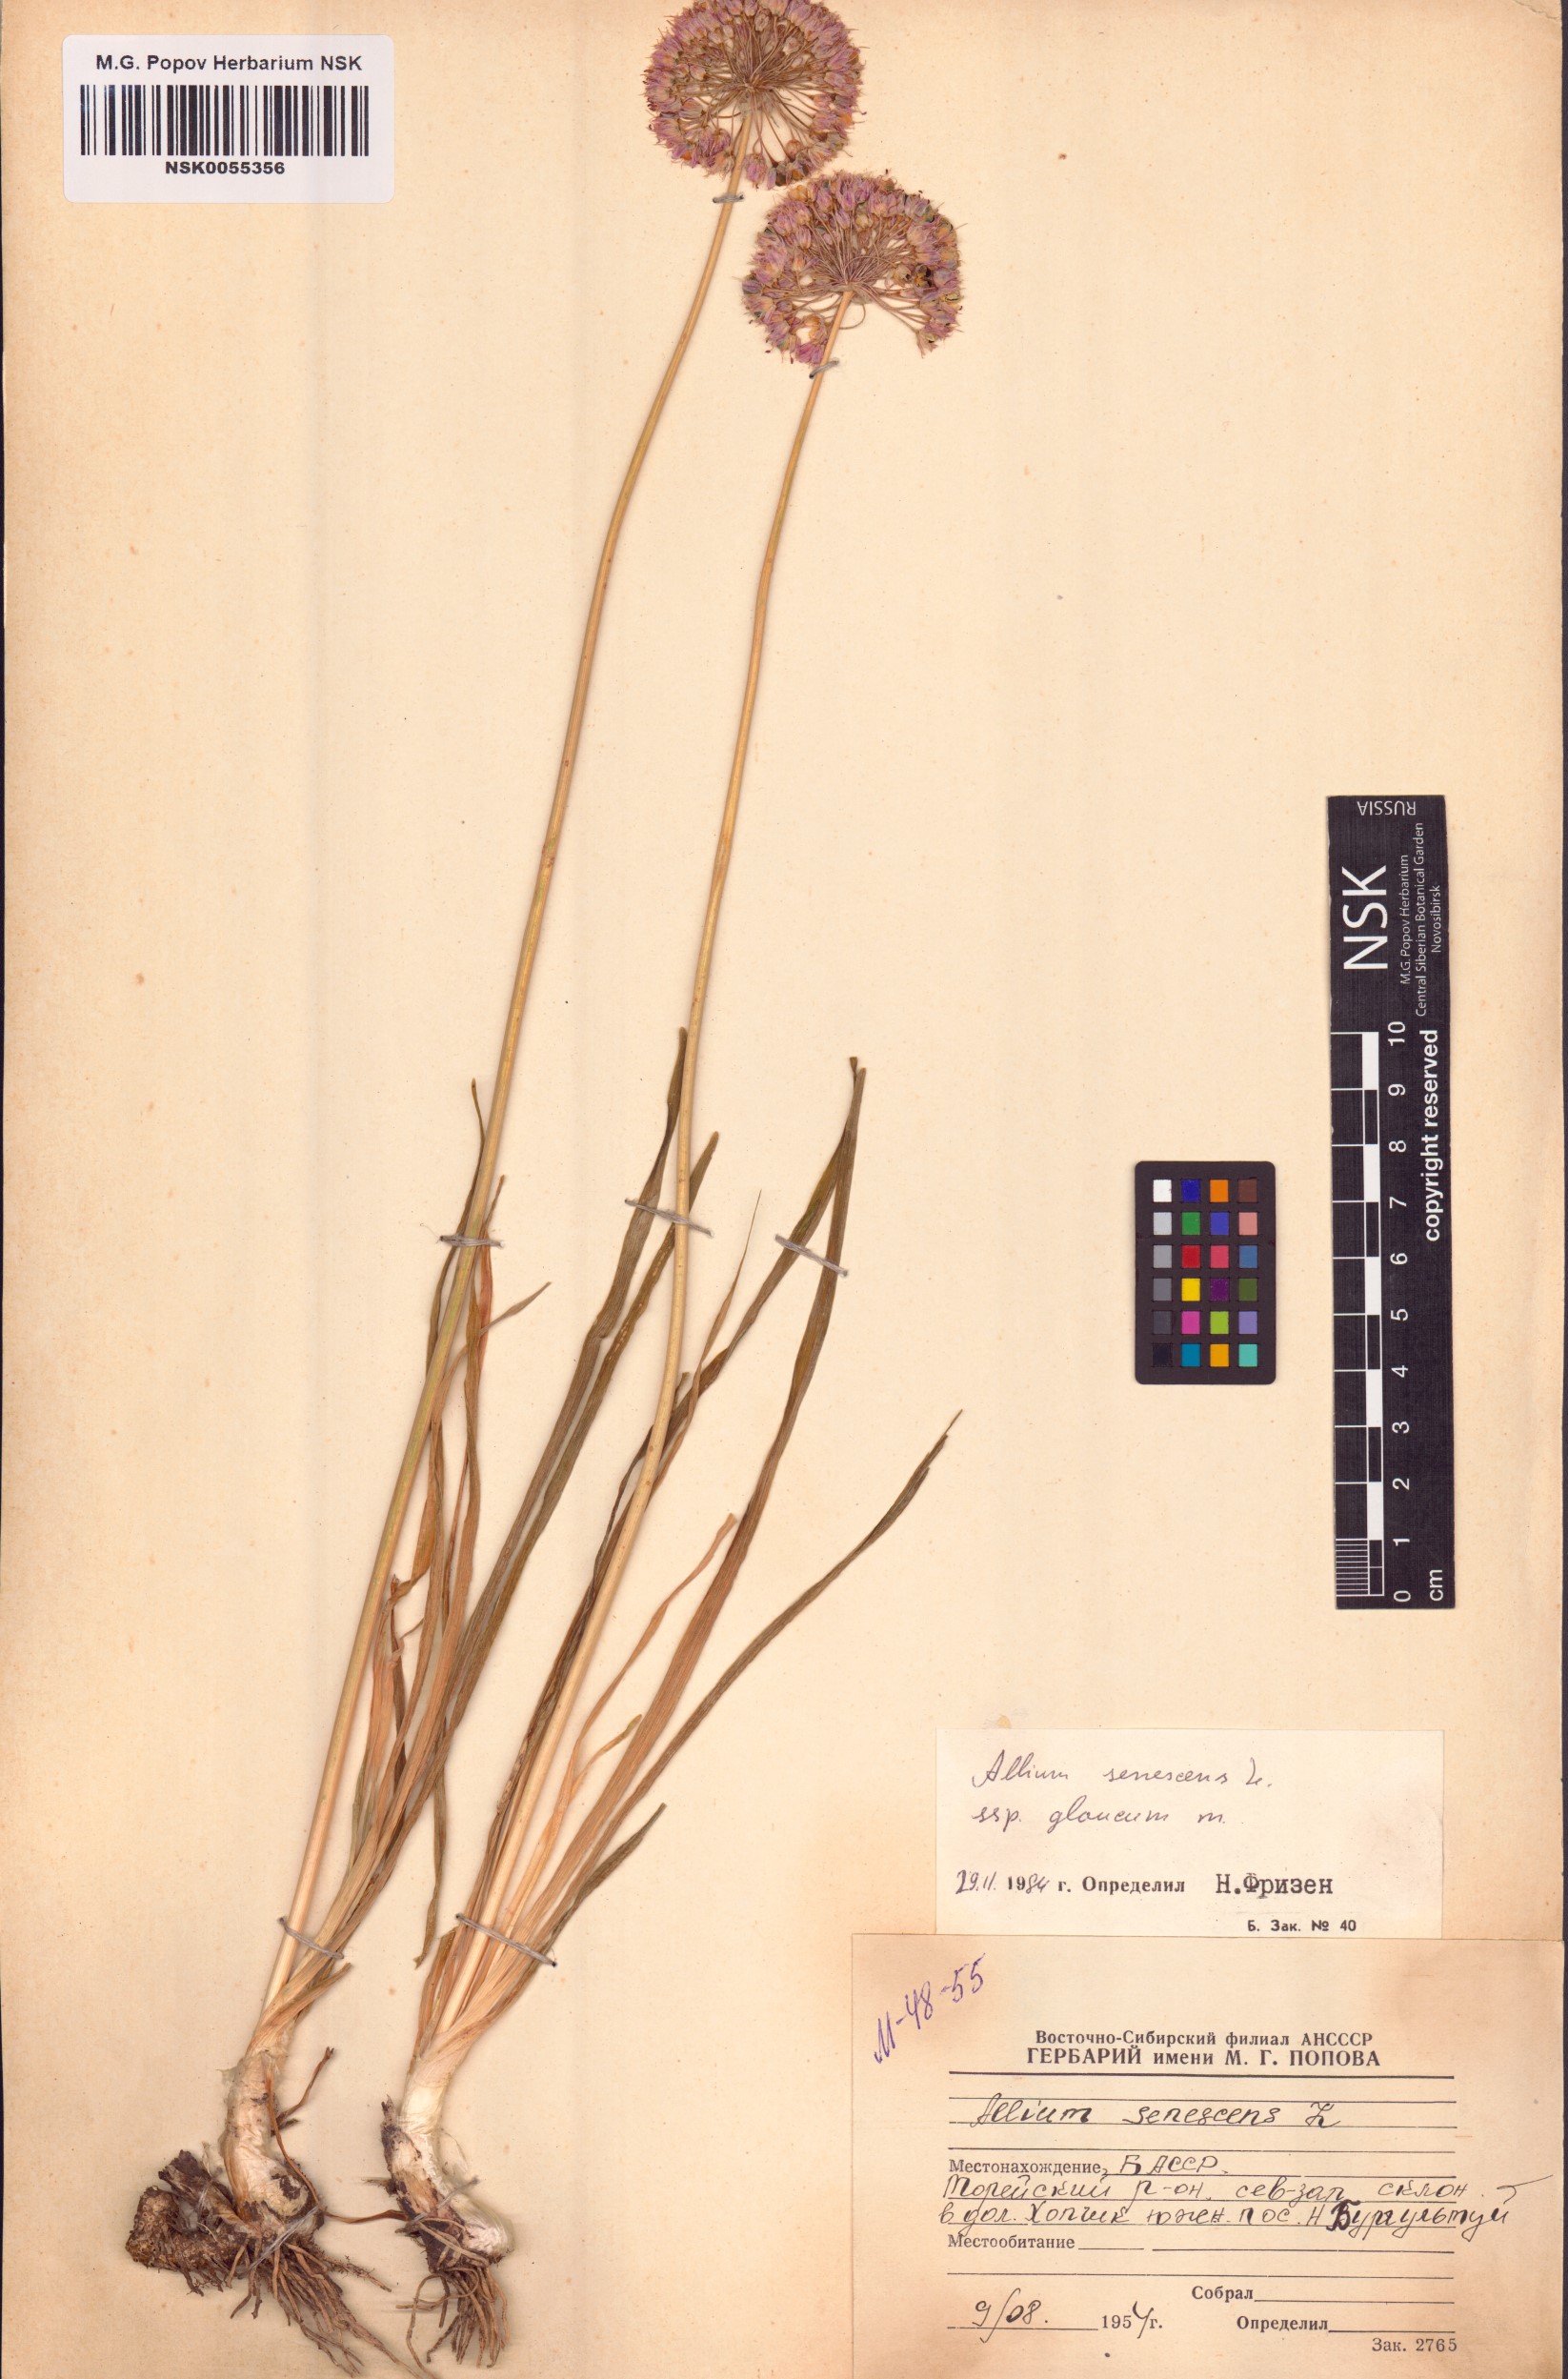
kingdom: Plantae
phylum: Tracheophyta
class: Liliopsida
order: Asparagales
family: Amaryllidaceae
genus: Allium
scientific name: Allium senescens
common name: German garlic
